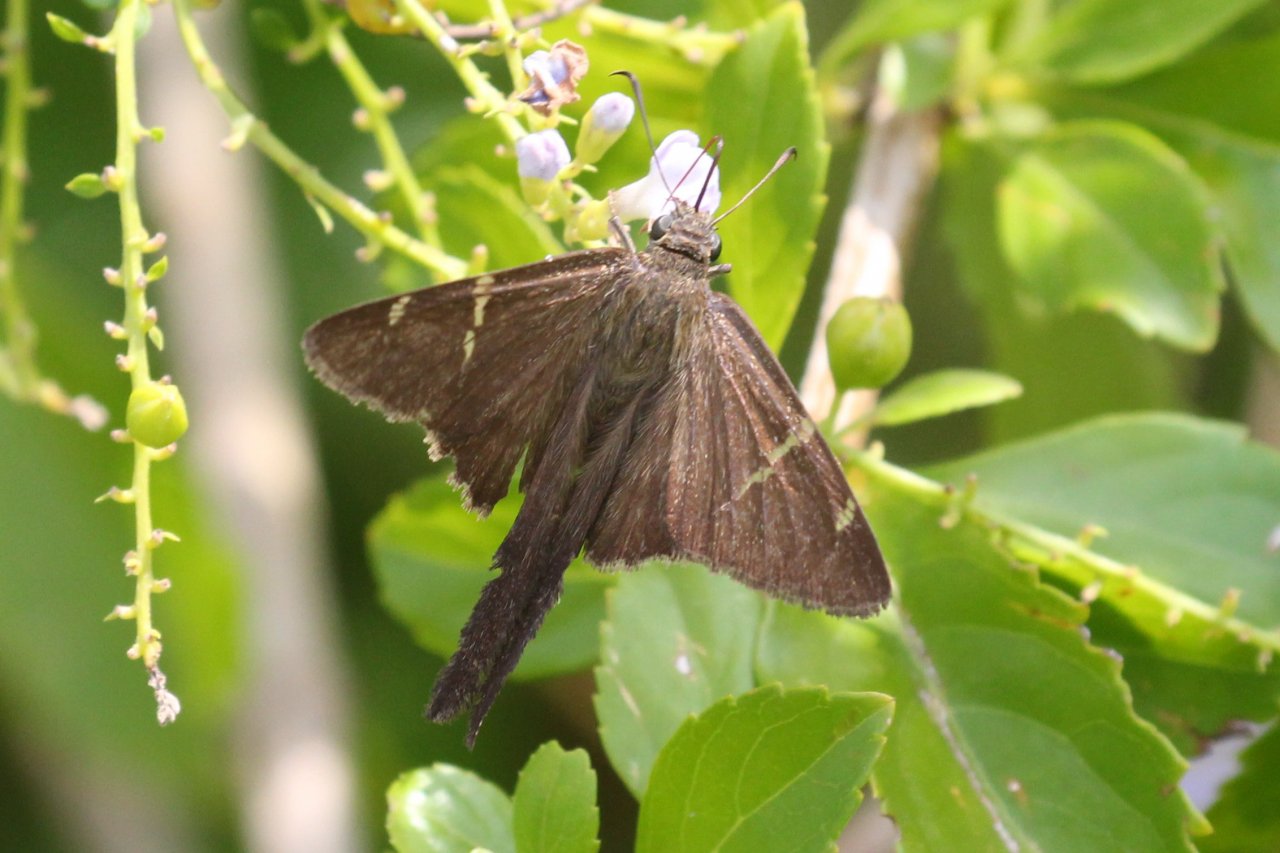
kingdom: Animalia
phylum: Arthropoda
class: Insecta
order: Lepidoptera
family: Hesperiidae
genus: Urbanus
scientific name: Urbanus procne
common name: Brown Longtail
